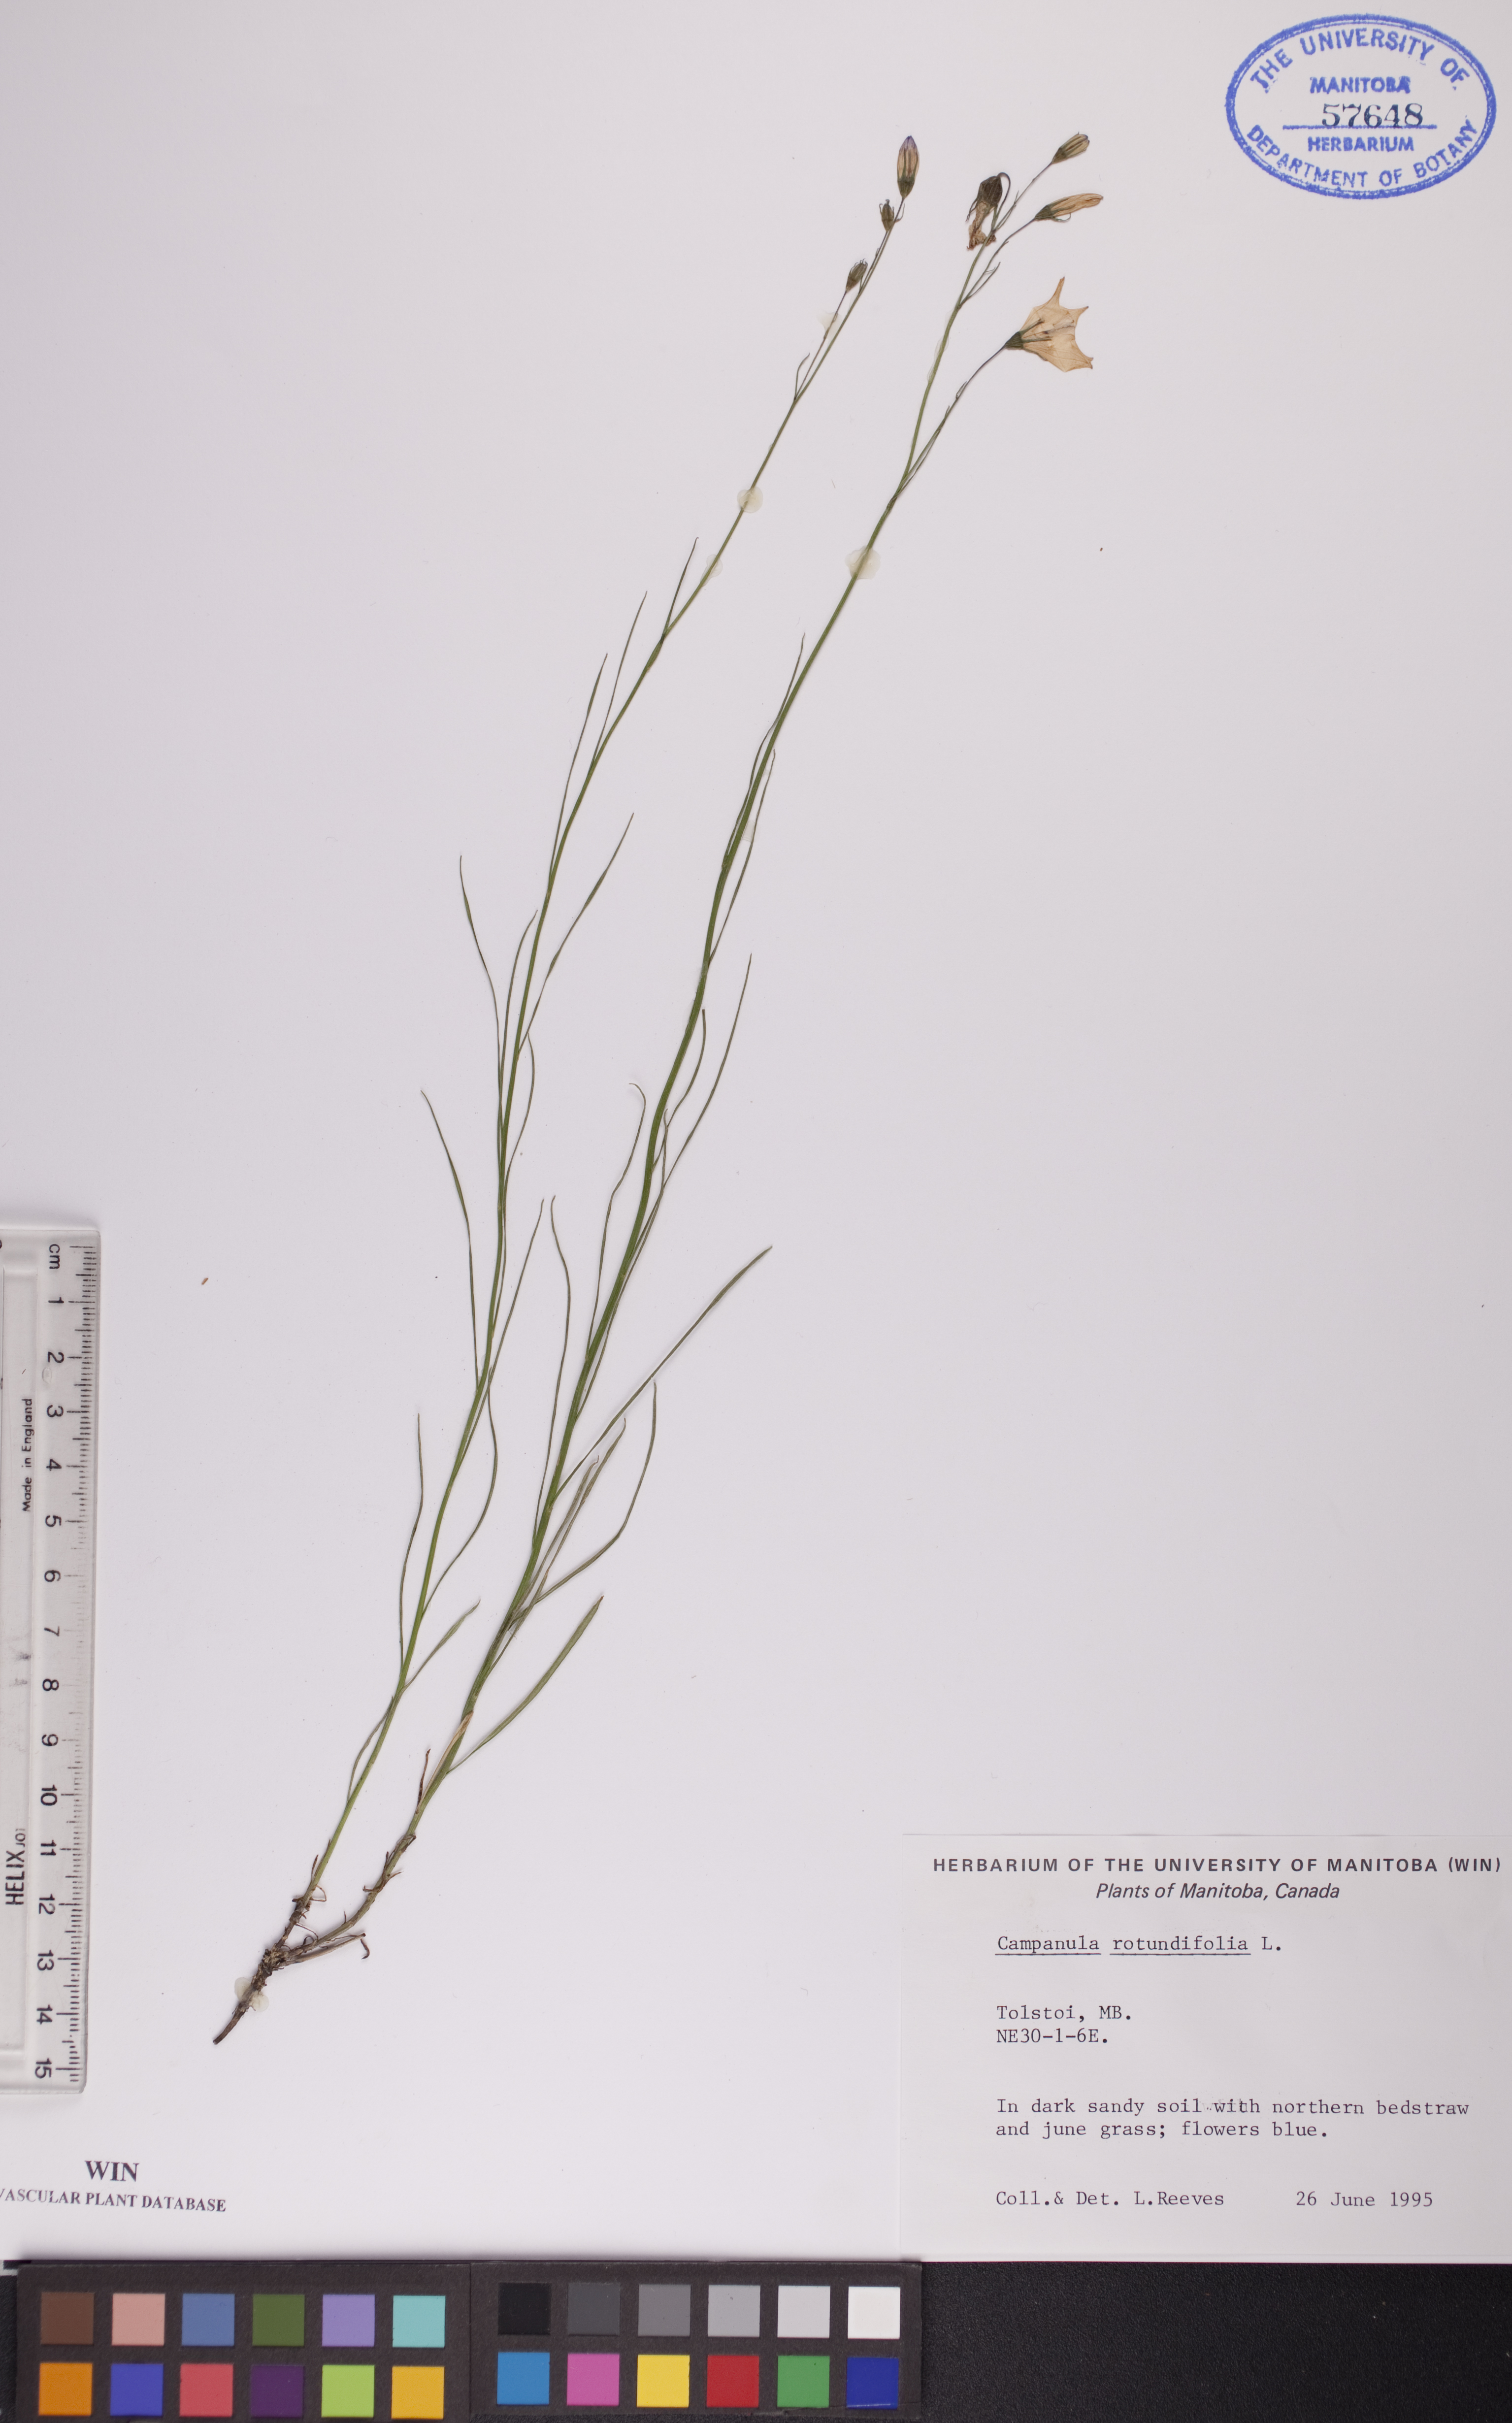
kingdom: Plantae
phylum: Tracheophyta
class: Magnoliopsida
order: Asterales
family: Campanulaceae
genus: Campanula
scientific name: Campanula rotundifolia
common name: Harebell
